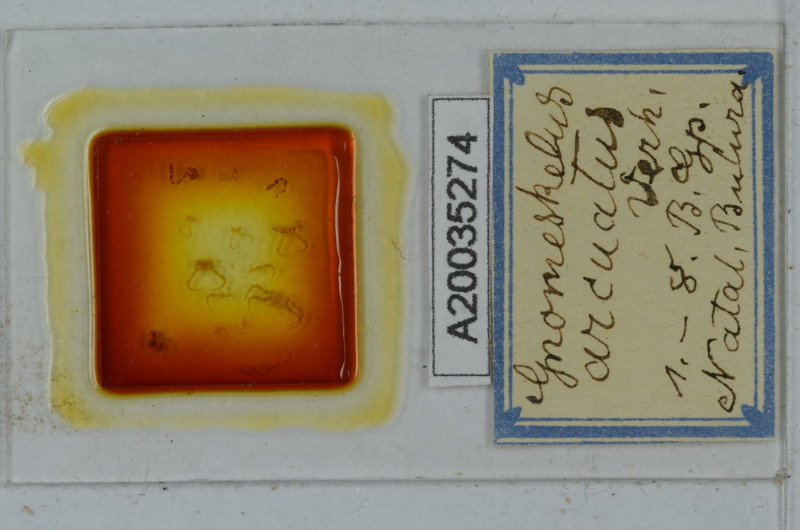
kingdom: Animalia
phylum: Arthropoda
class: Diplopoda
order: Polydesmida
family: Dalodesmidae
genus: Gnomeskelus
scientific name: Gnomeskelus arcuatus
